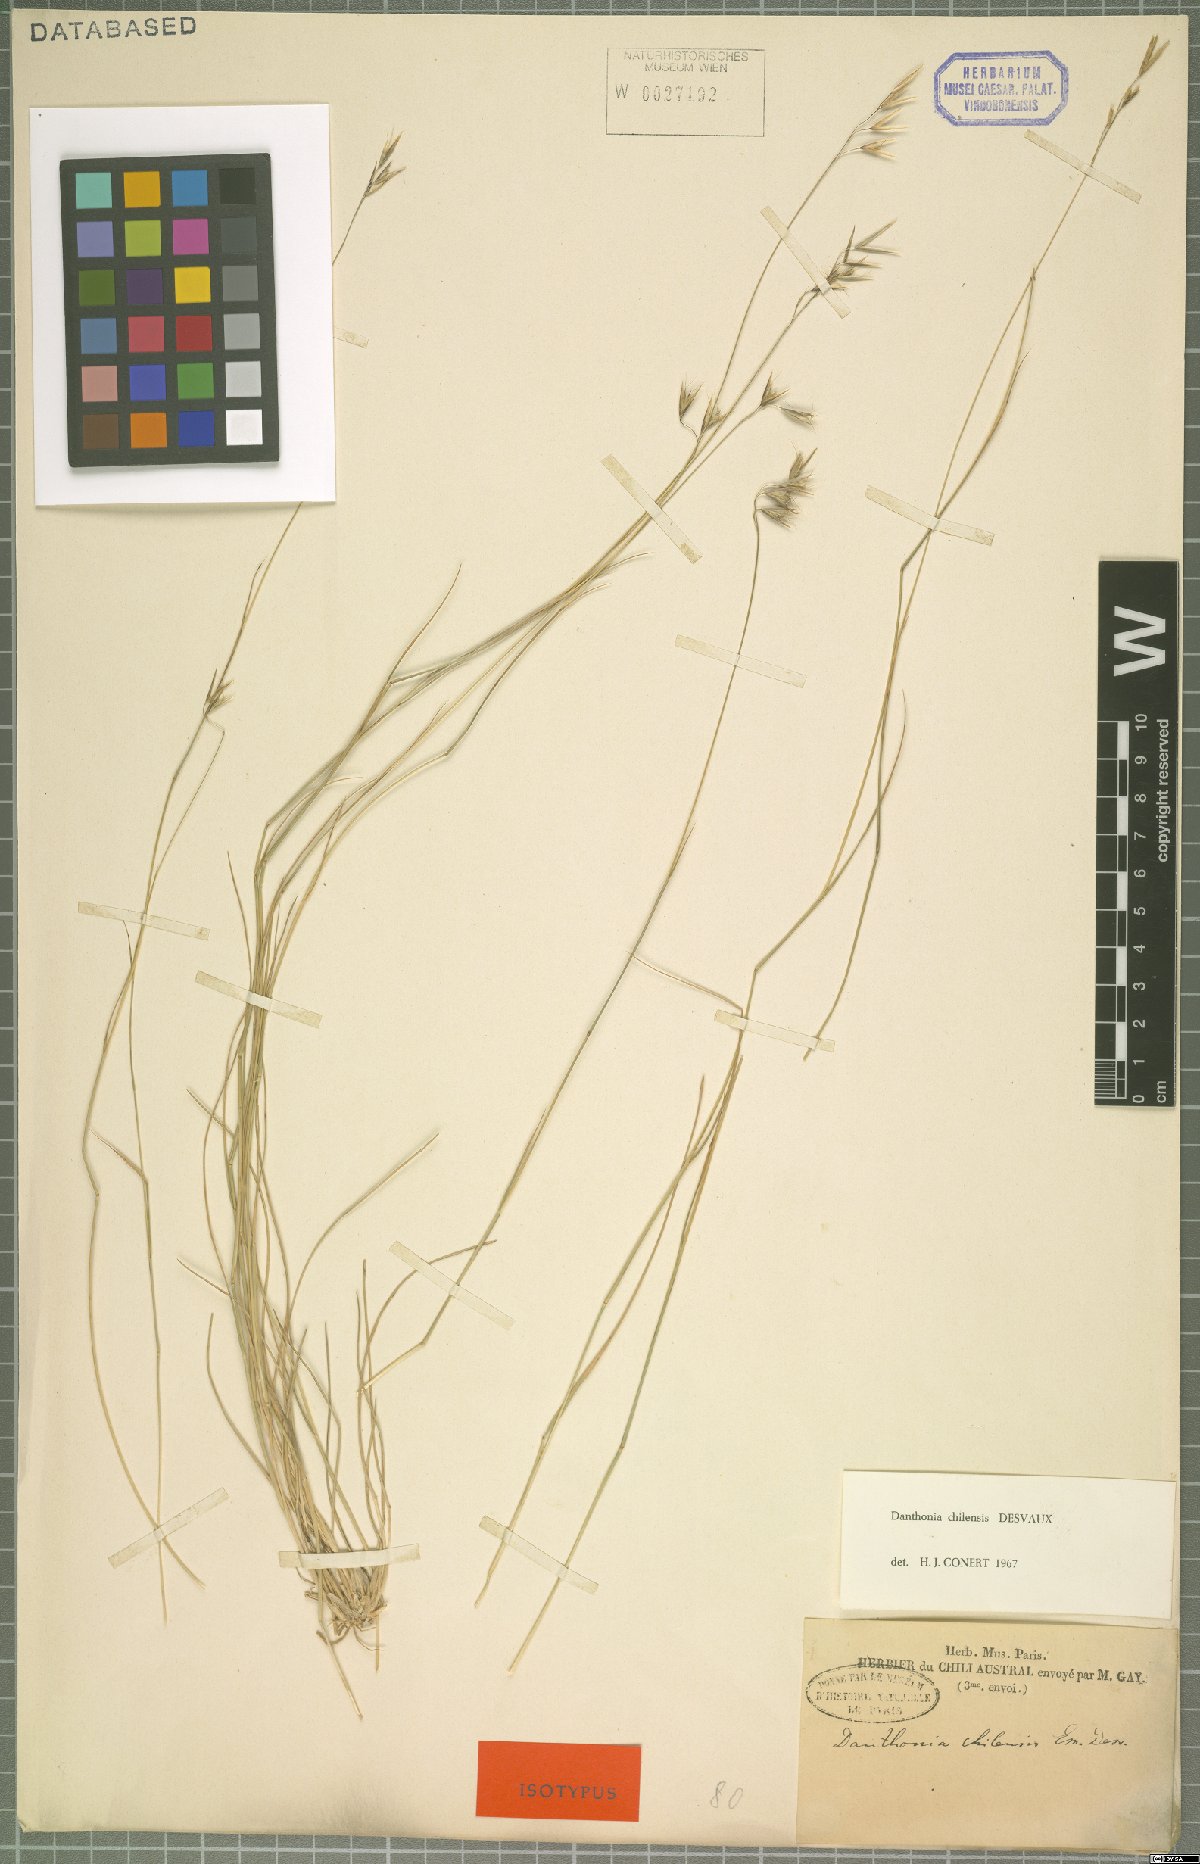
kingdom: Plantae
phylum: Tracheophyta
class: Liliopsida
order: Poales
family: Poaceae
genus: Danthonia
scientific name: Danthonia chilensis
